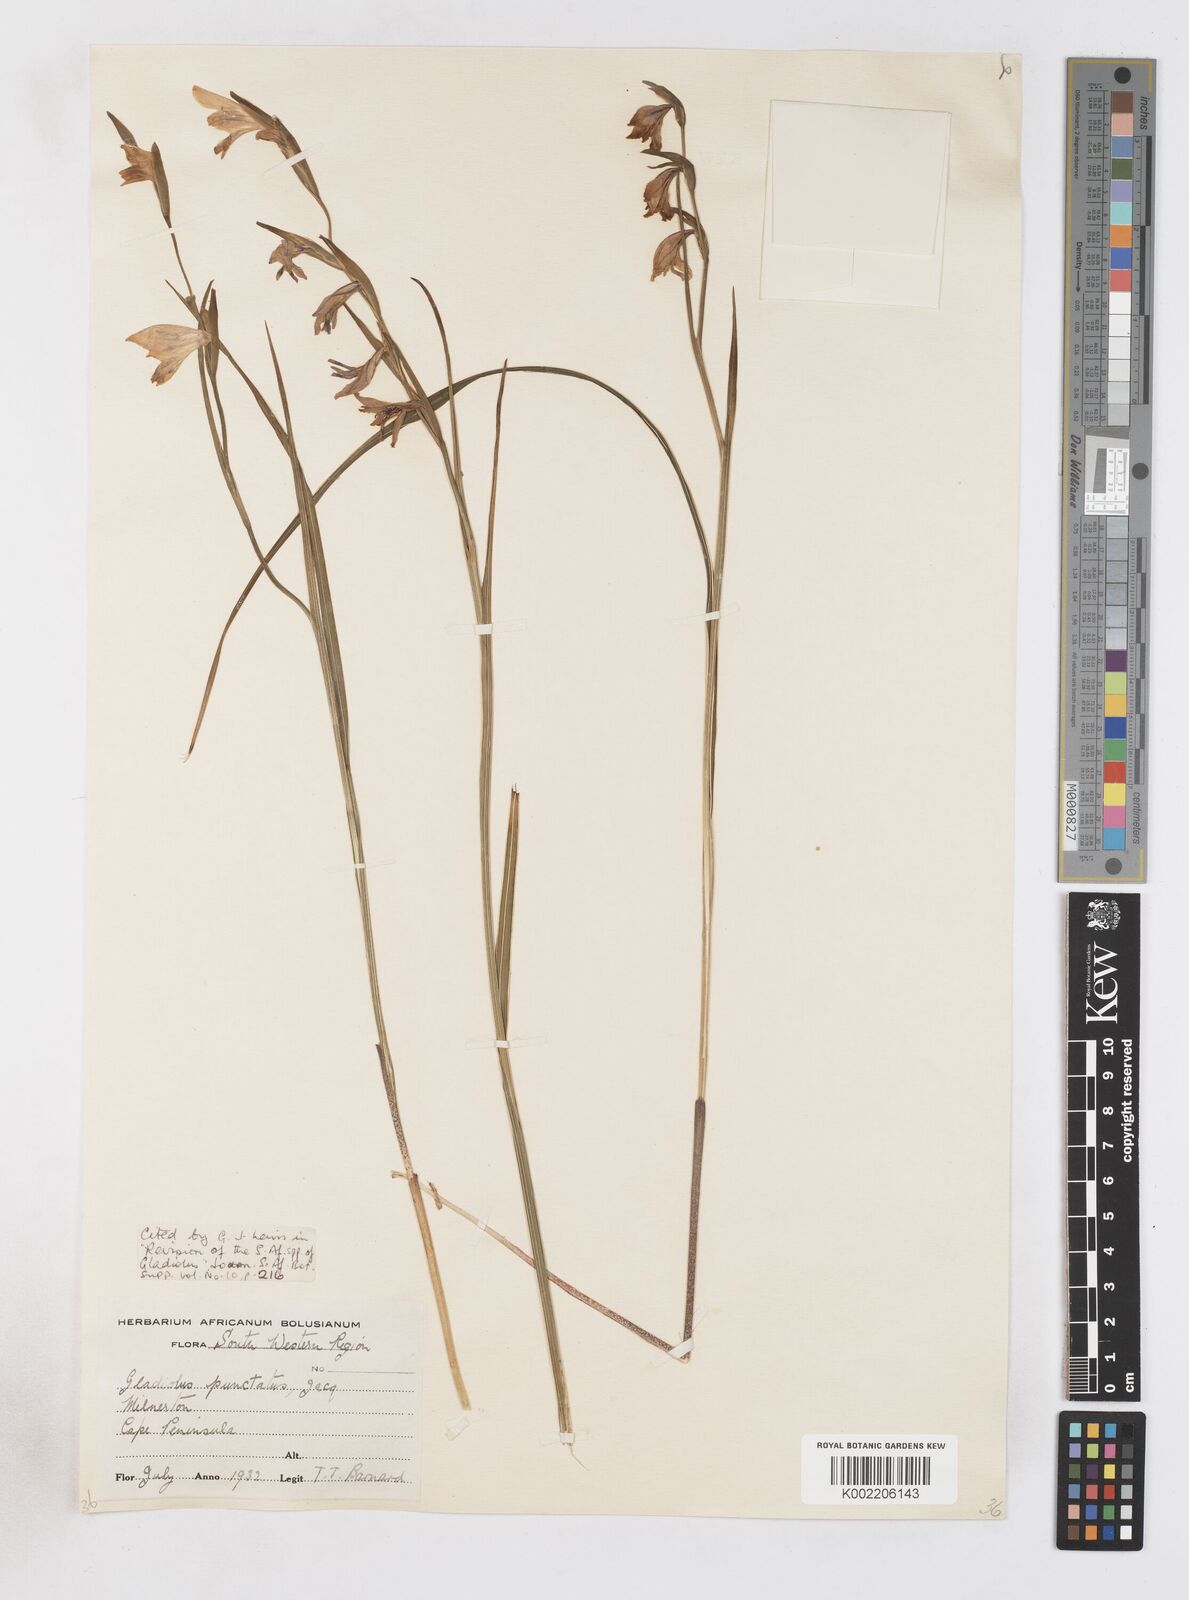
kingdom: Plantae
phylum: Tracheophyta
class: Liliopsida
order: Asparagales
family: Iridaceae
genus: Gladiolus
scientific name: Gladiolus griseus
